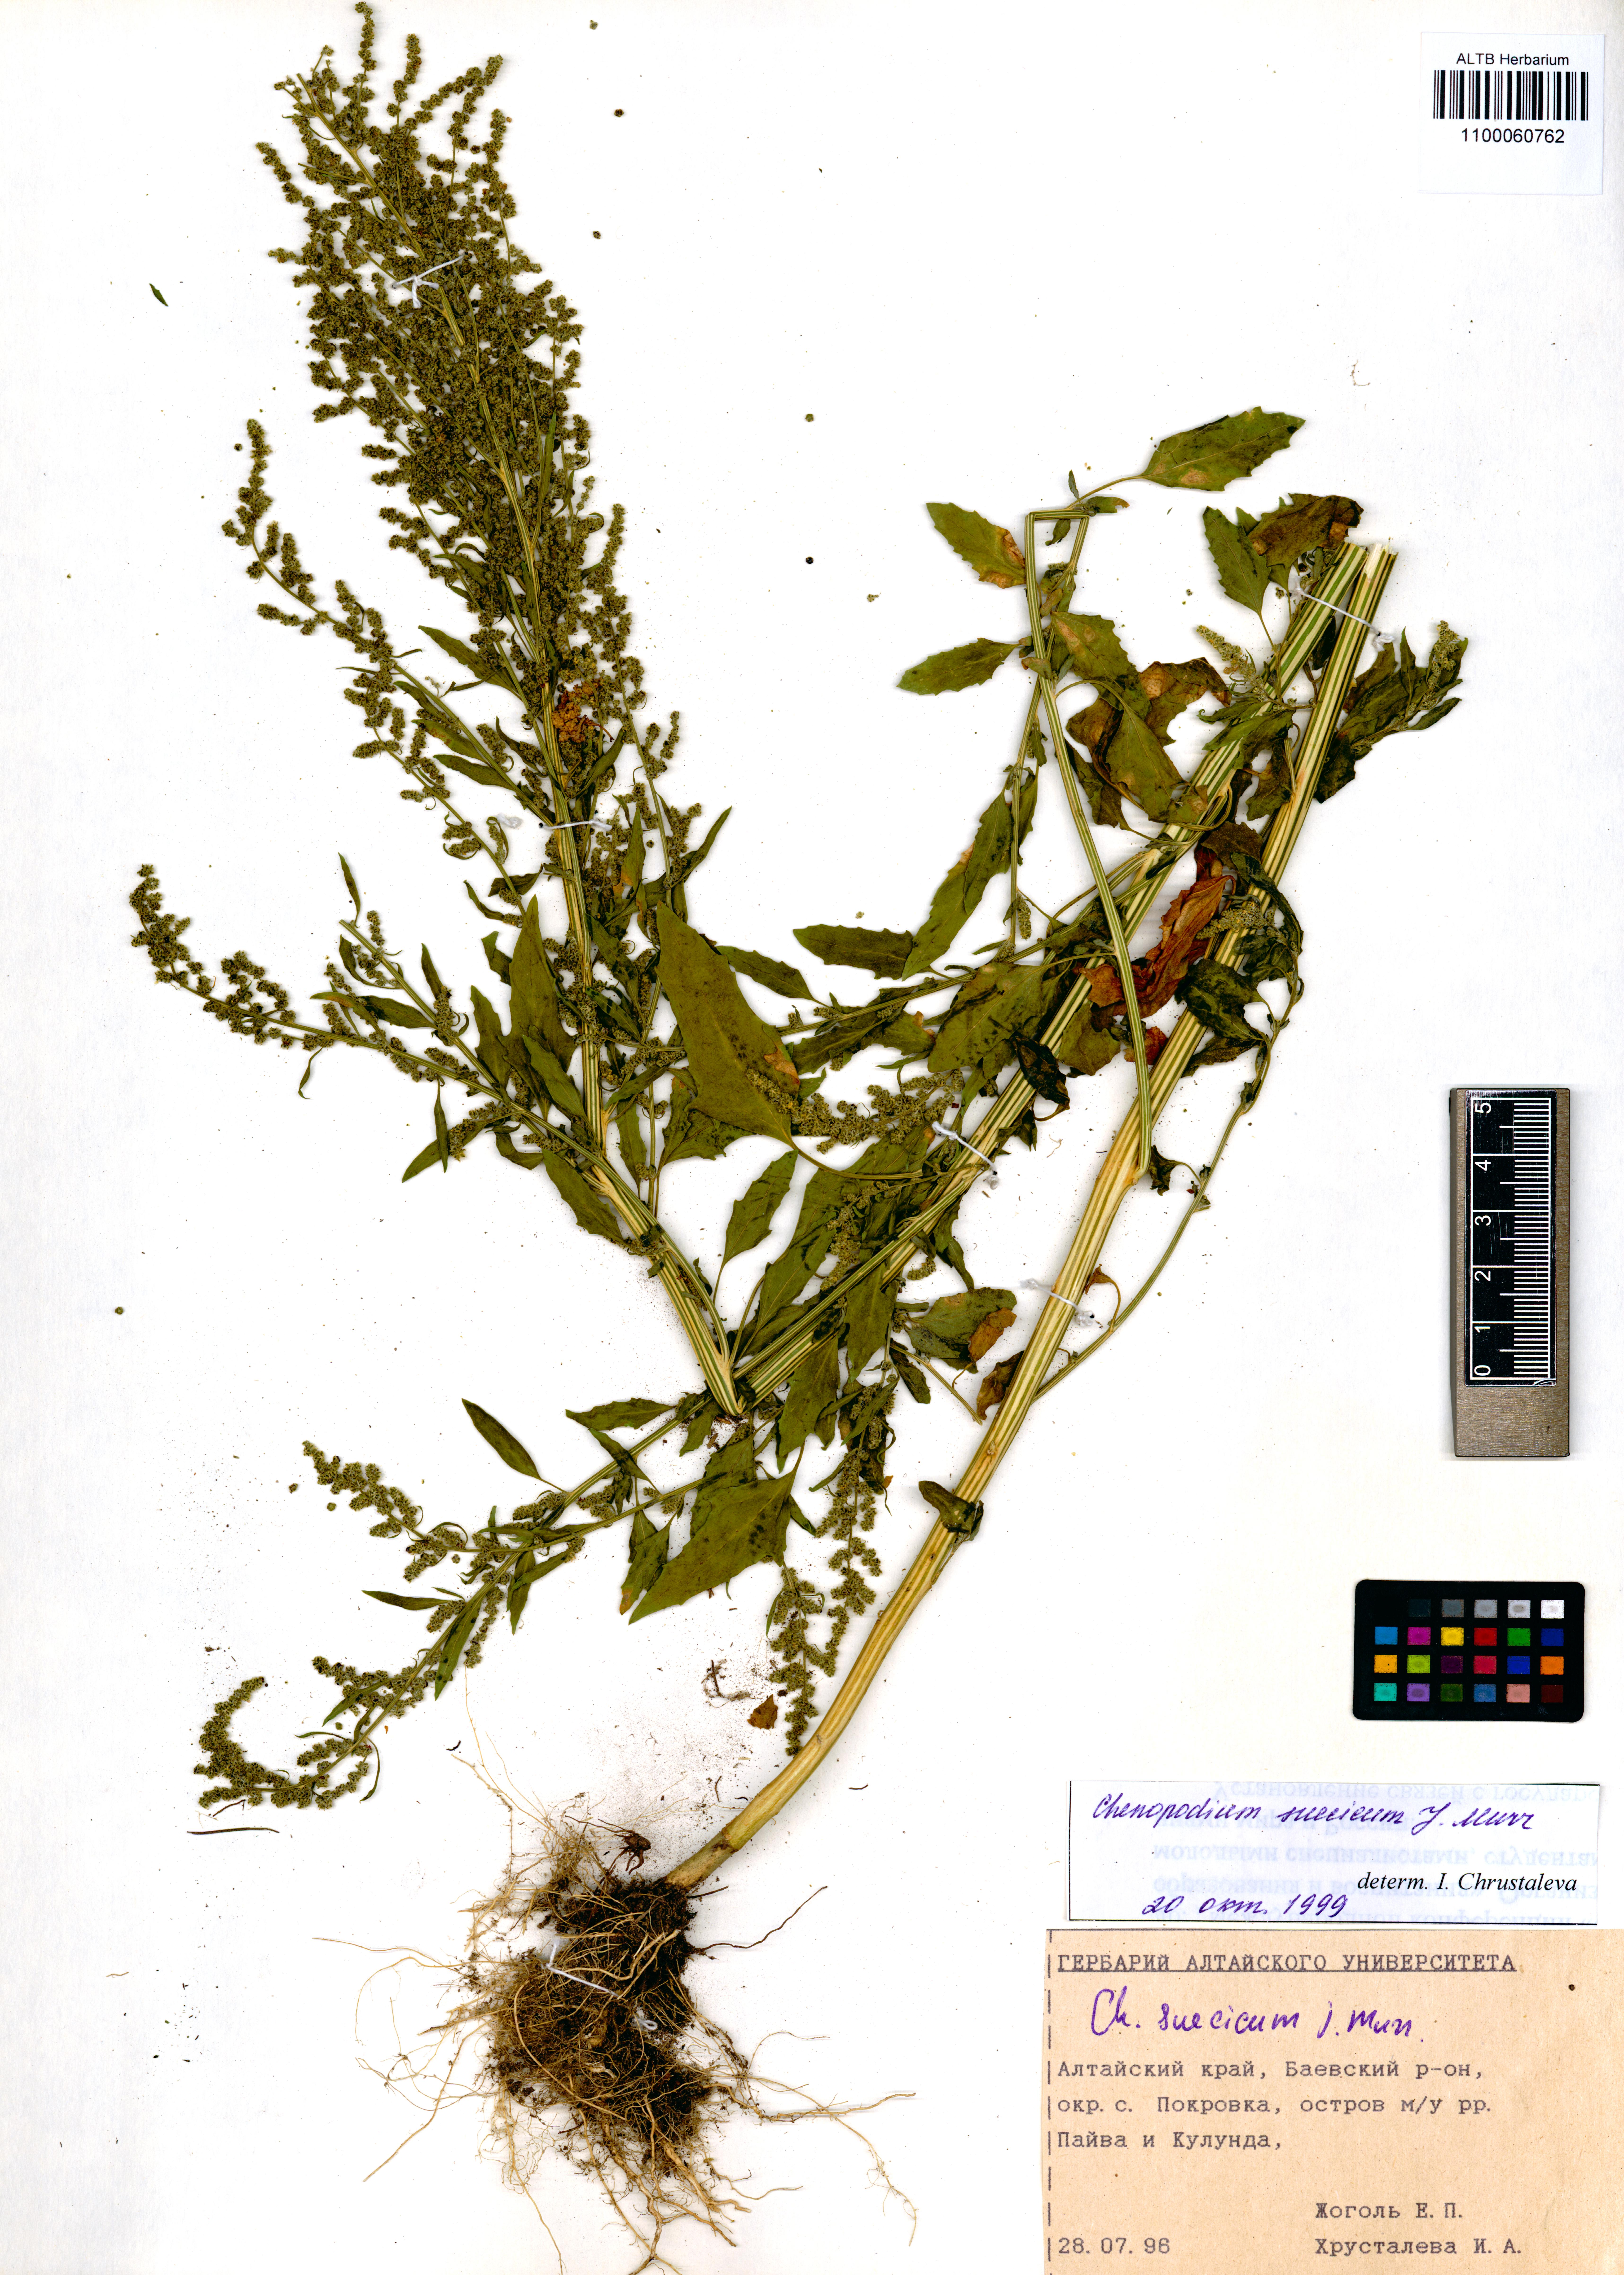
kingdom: Plantae
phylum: Tracheophyta
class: Magnoliopsida
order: Caryophyllales
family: Amaranthaceae
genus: Chenopodium
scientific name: Chenopodium suecicum
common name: Swedish goosefoot
